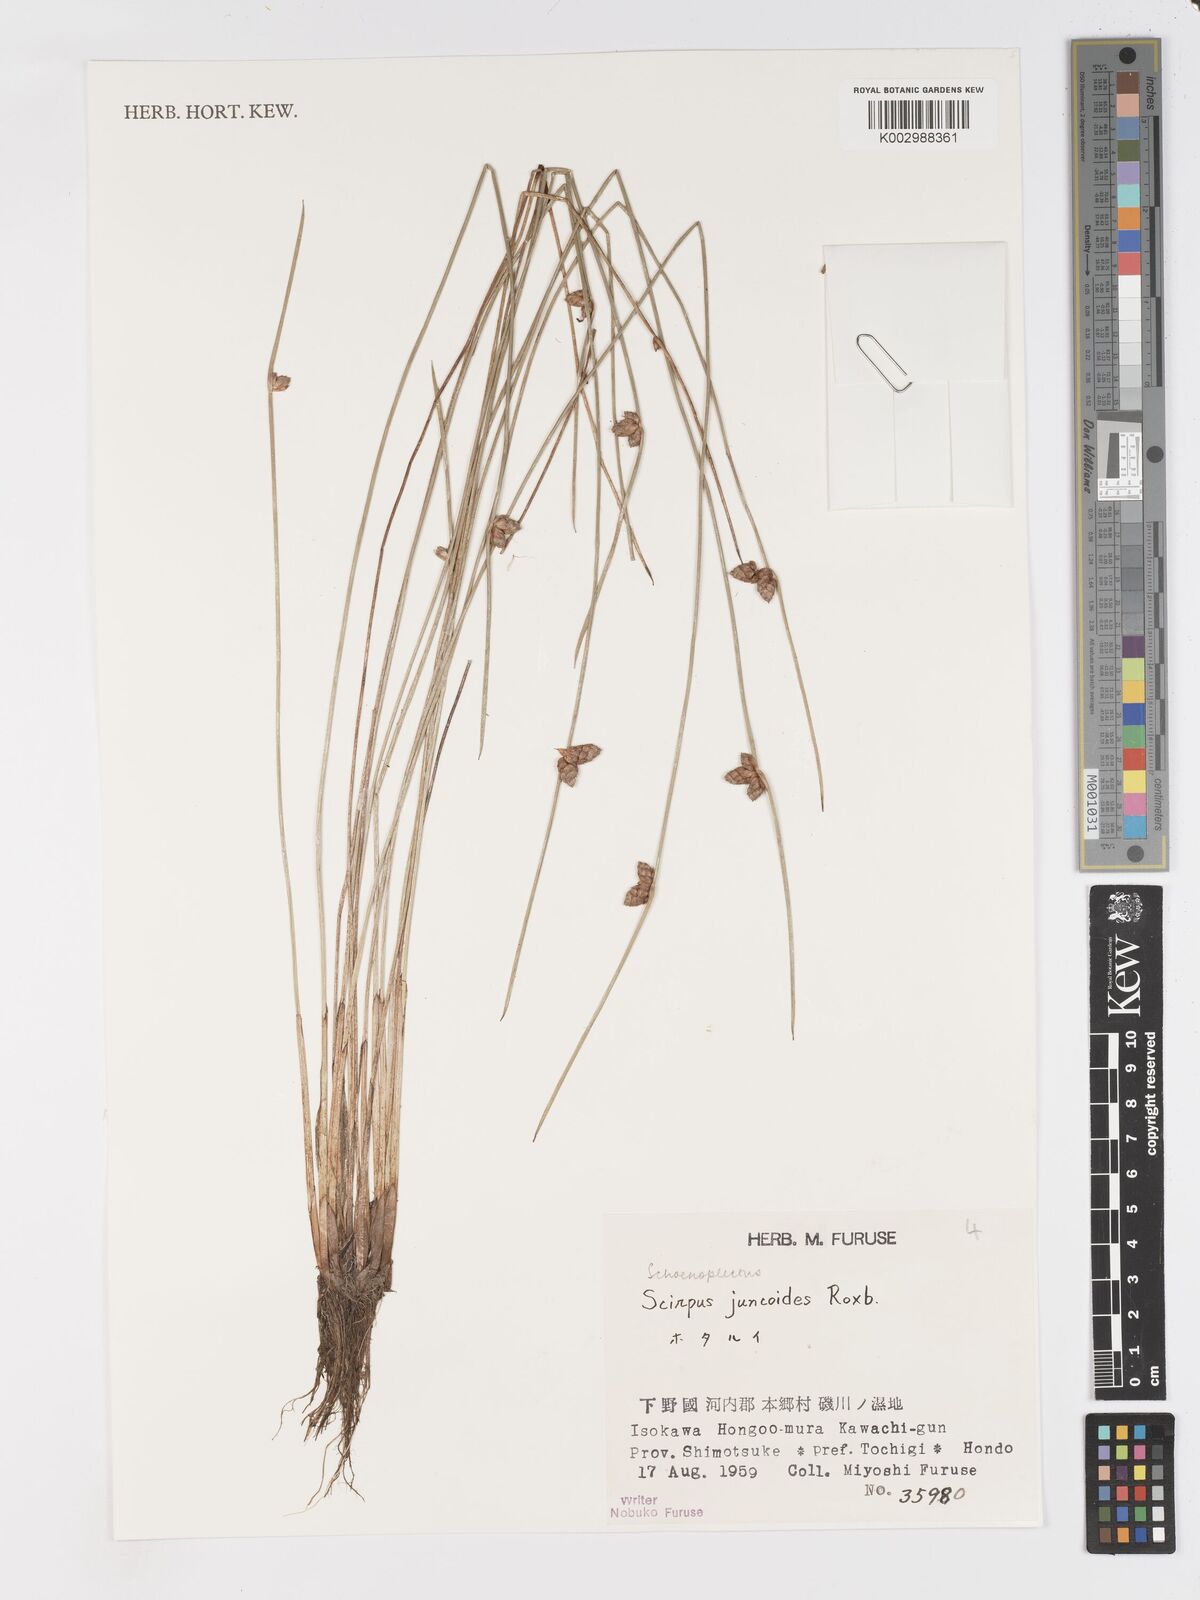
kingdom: Plantae
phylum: Tracheophyta
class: Liliopsida
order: Poales
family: Cyperaceae
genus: Schoenoplectiella
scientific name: Schoenoplectiella juncoides
